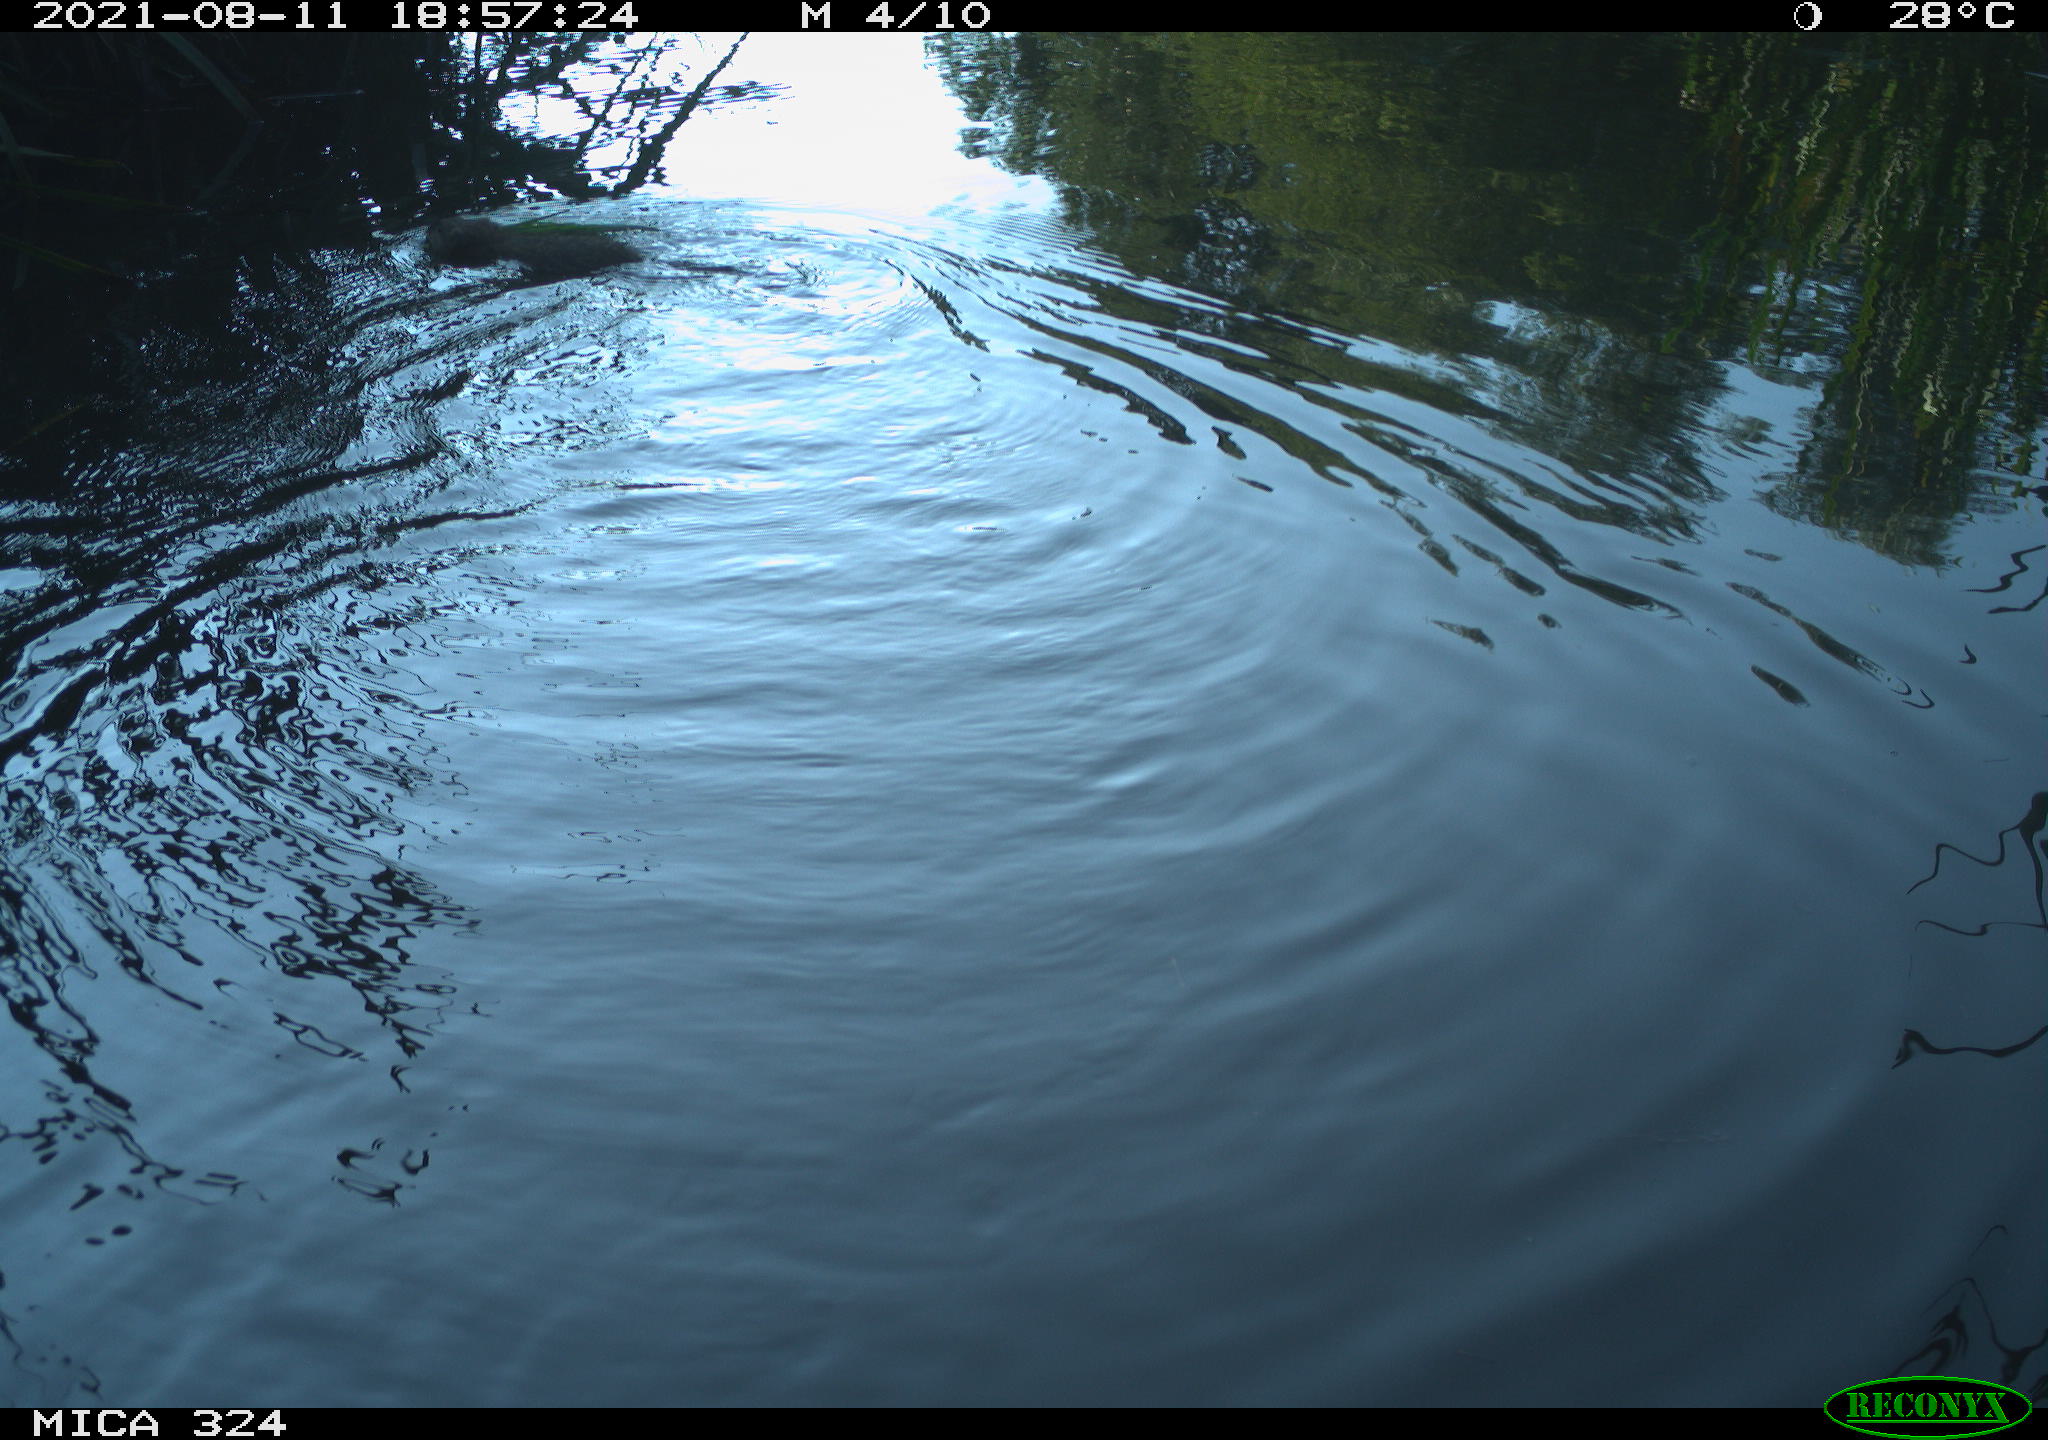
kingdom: Animalia
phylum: Chordata
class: Mammalia
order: Rodentia
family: Cricetidae
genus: Ondatra
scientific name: Ondatra zibethicus
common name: Muskrat
